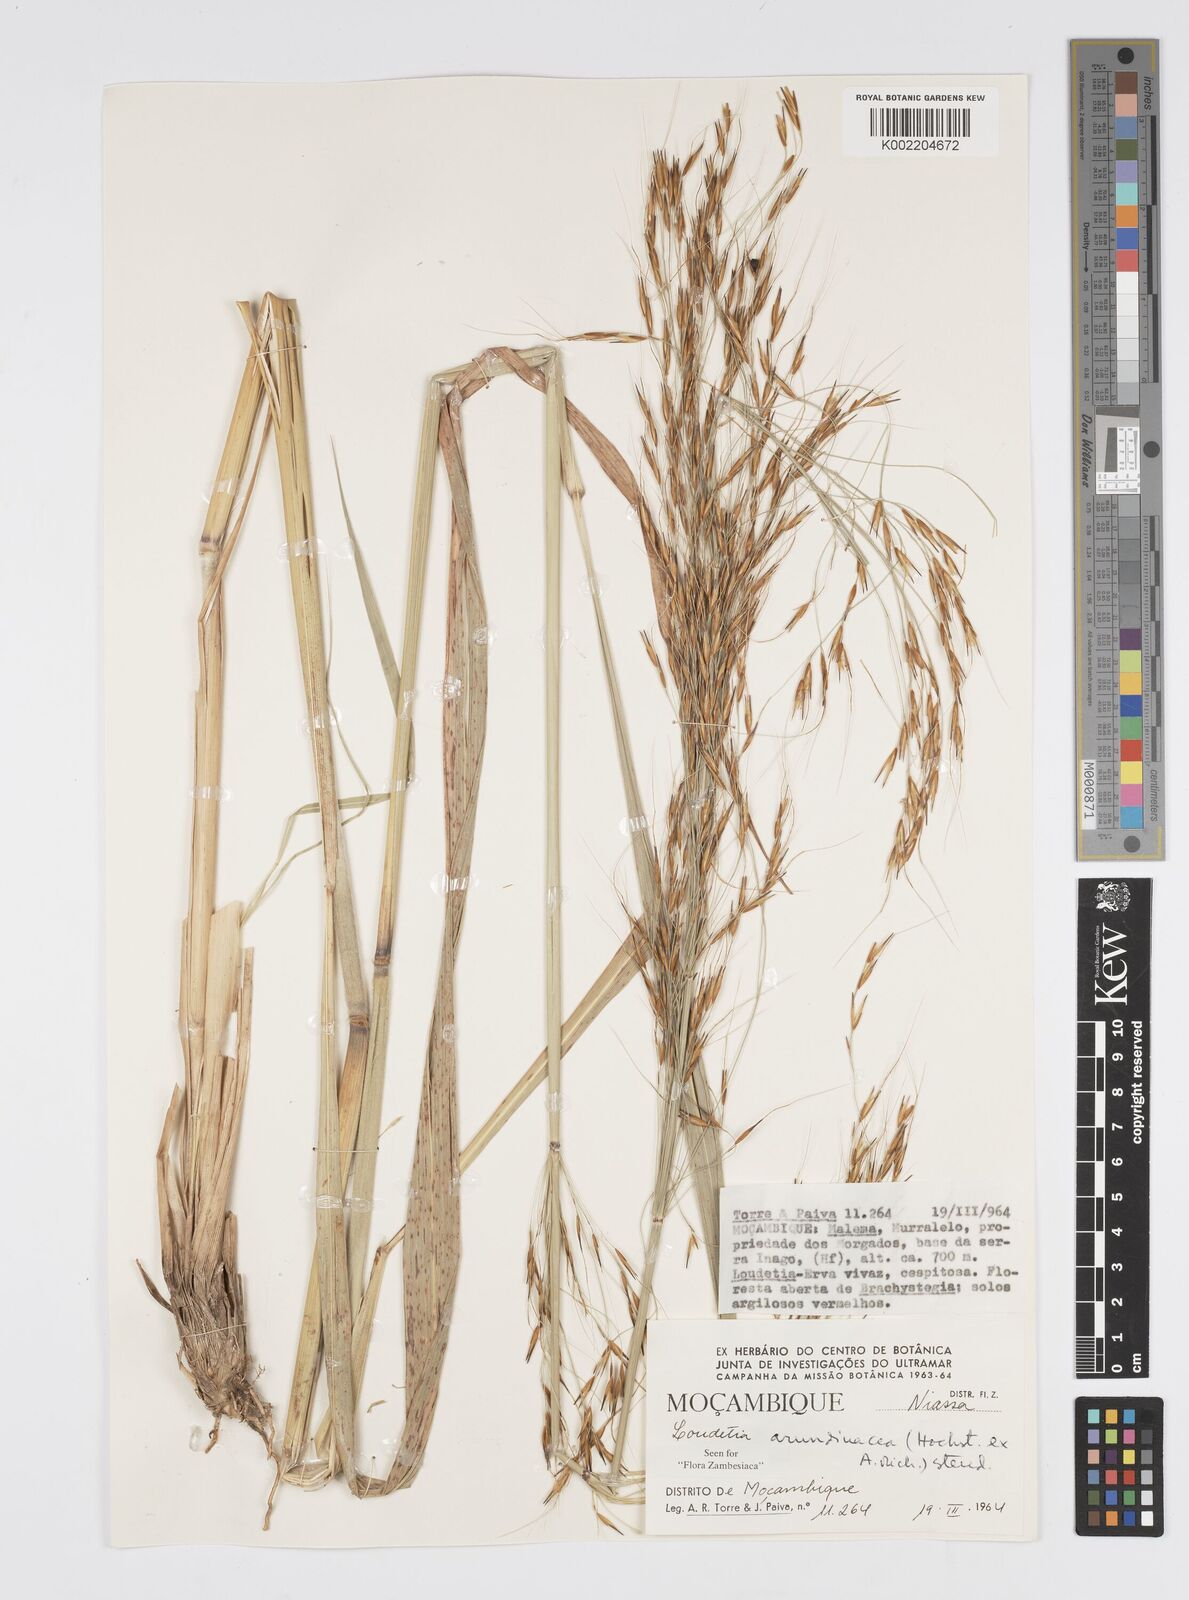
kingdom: Plantae
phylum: Tracheophyta
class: Liliopsida
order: Poales
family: Poaceae
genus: Loudetia
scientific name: Loudetia arundinacea
